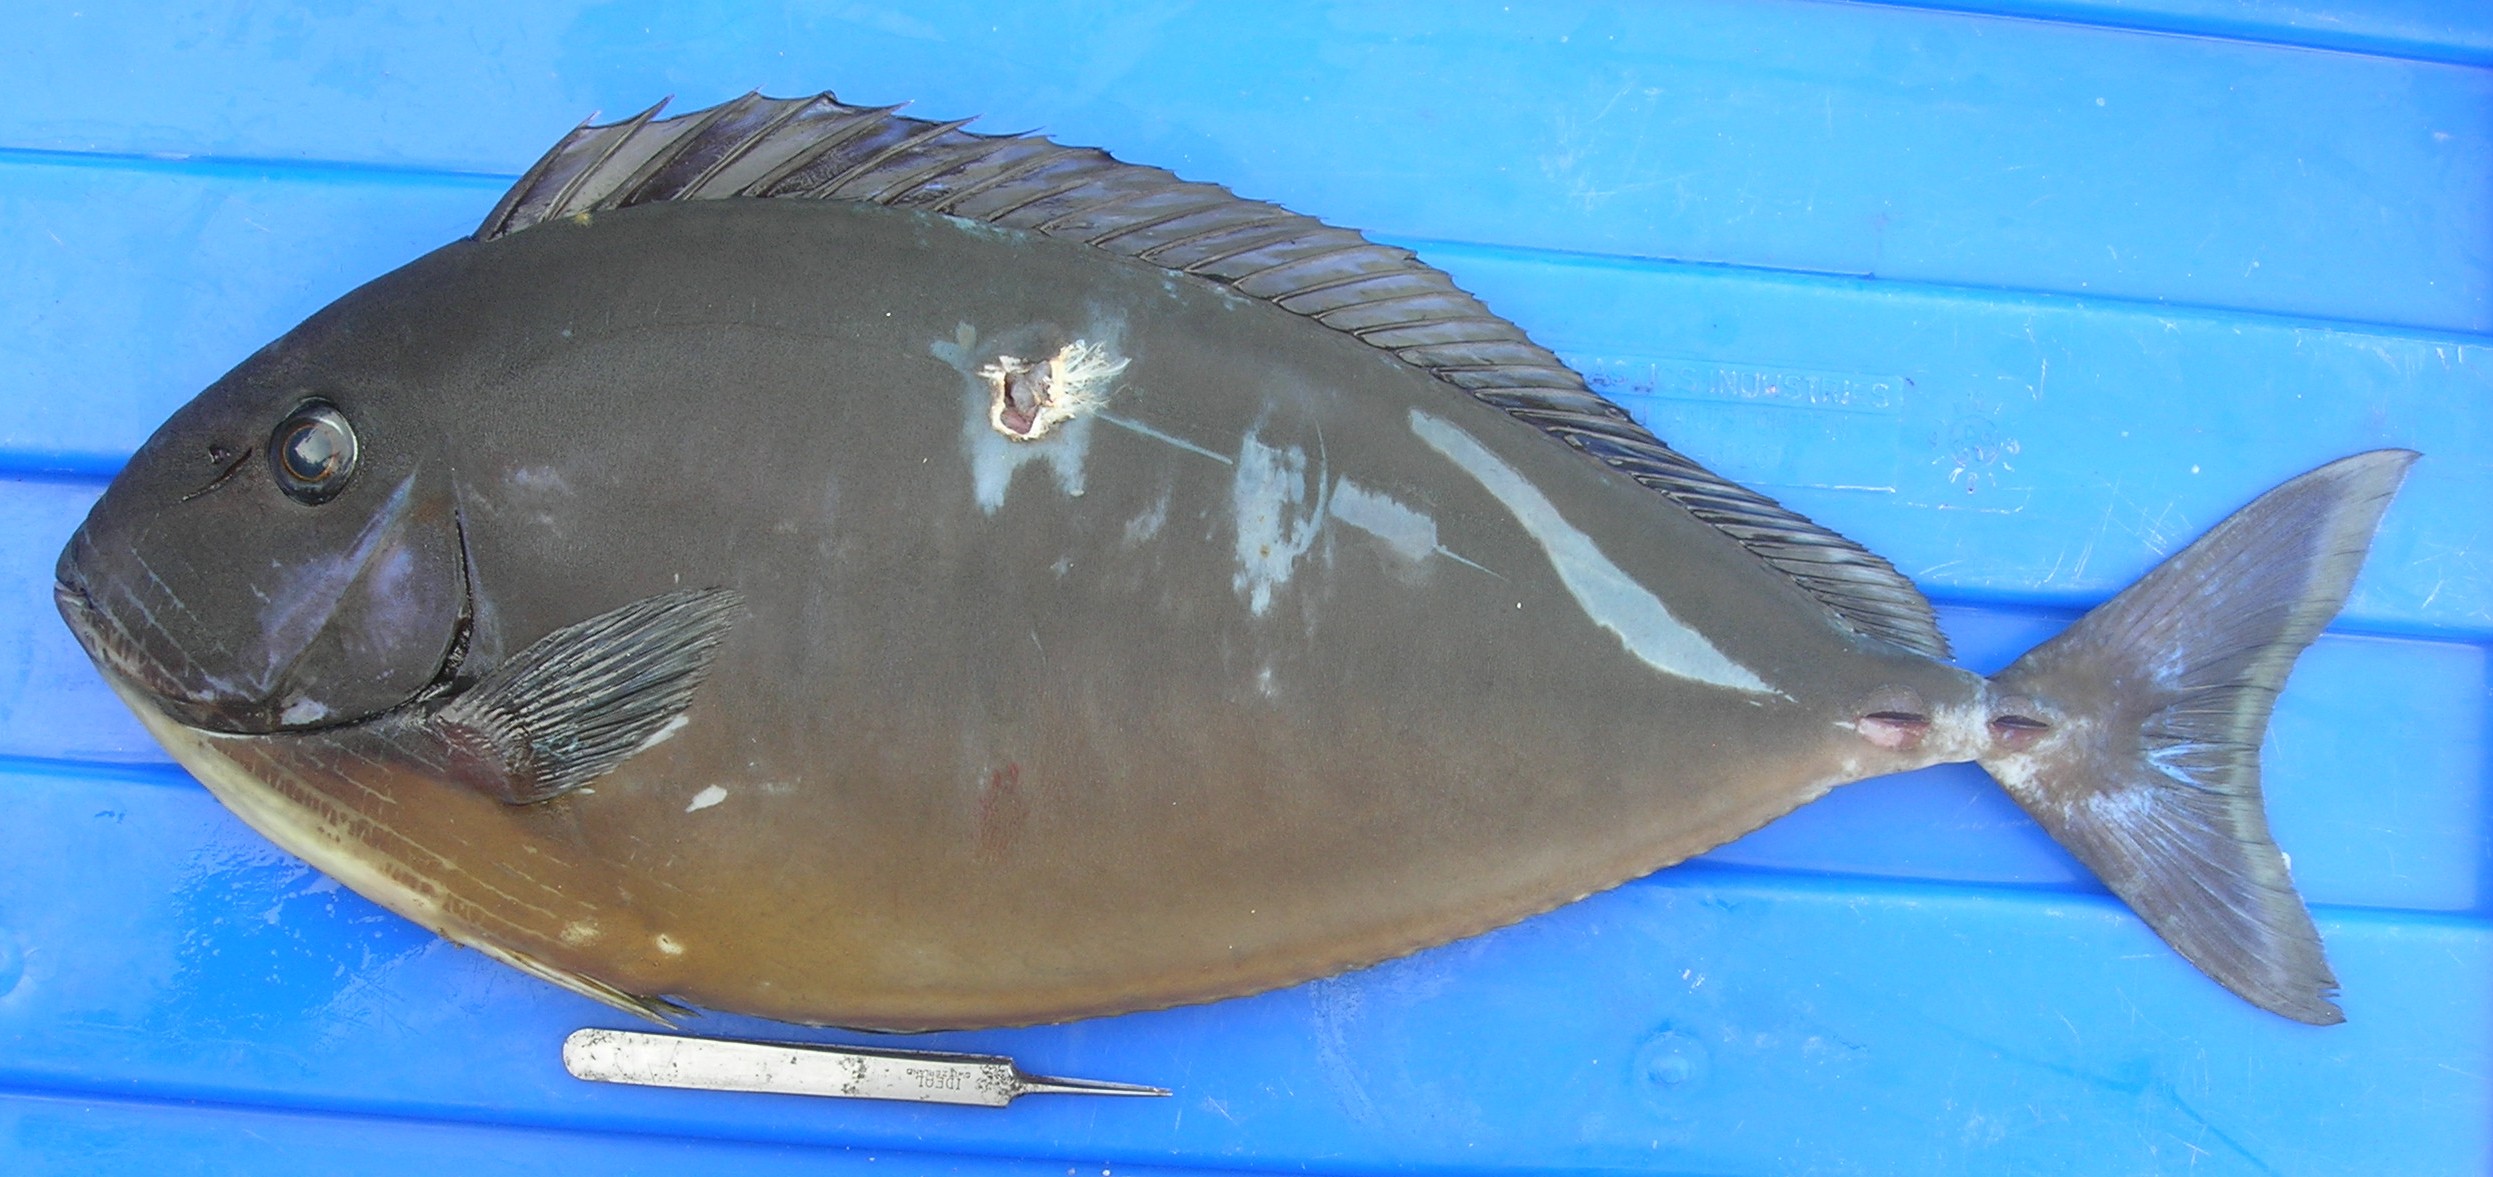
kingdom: Animalia
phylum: Chordata
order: Perciformes
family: Acanthuridae
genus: Naso
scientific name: Naso hexacanthus
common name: Black unicornfish
